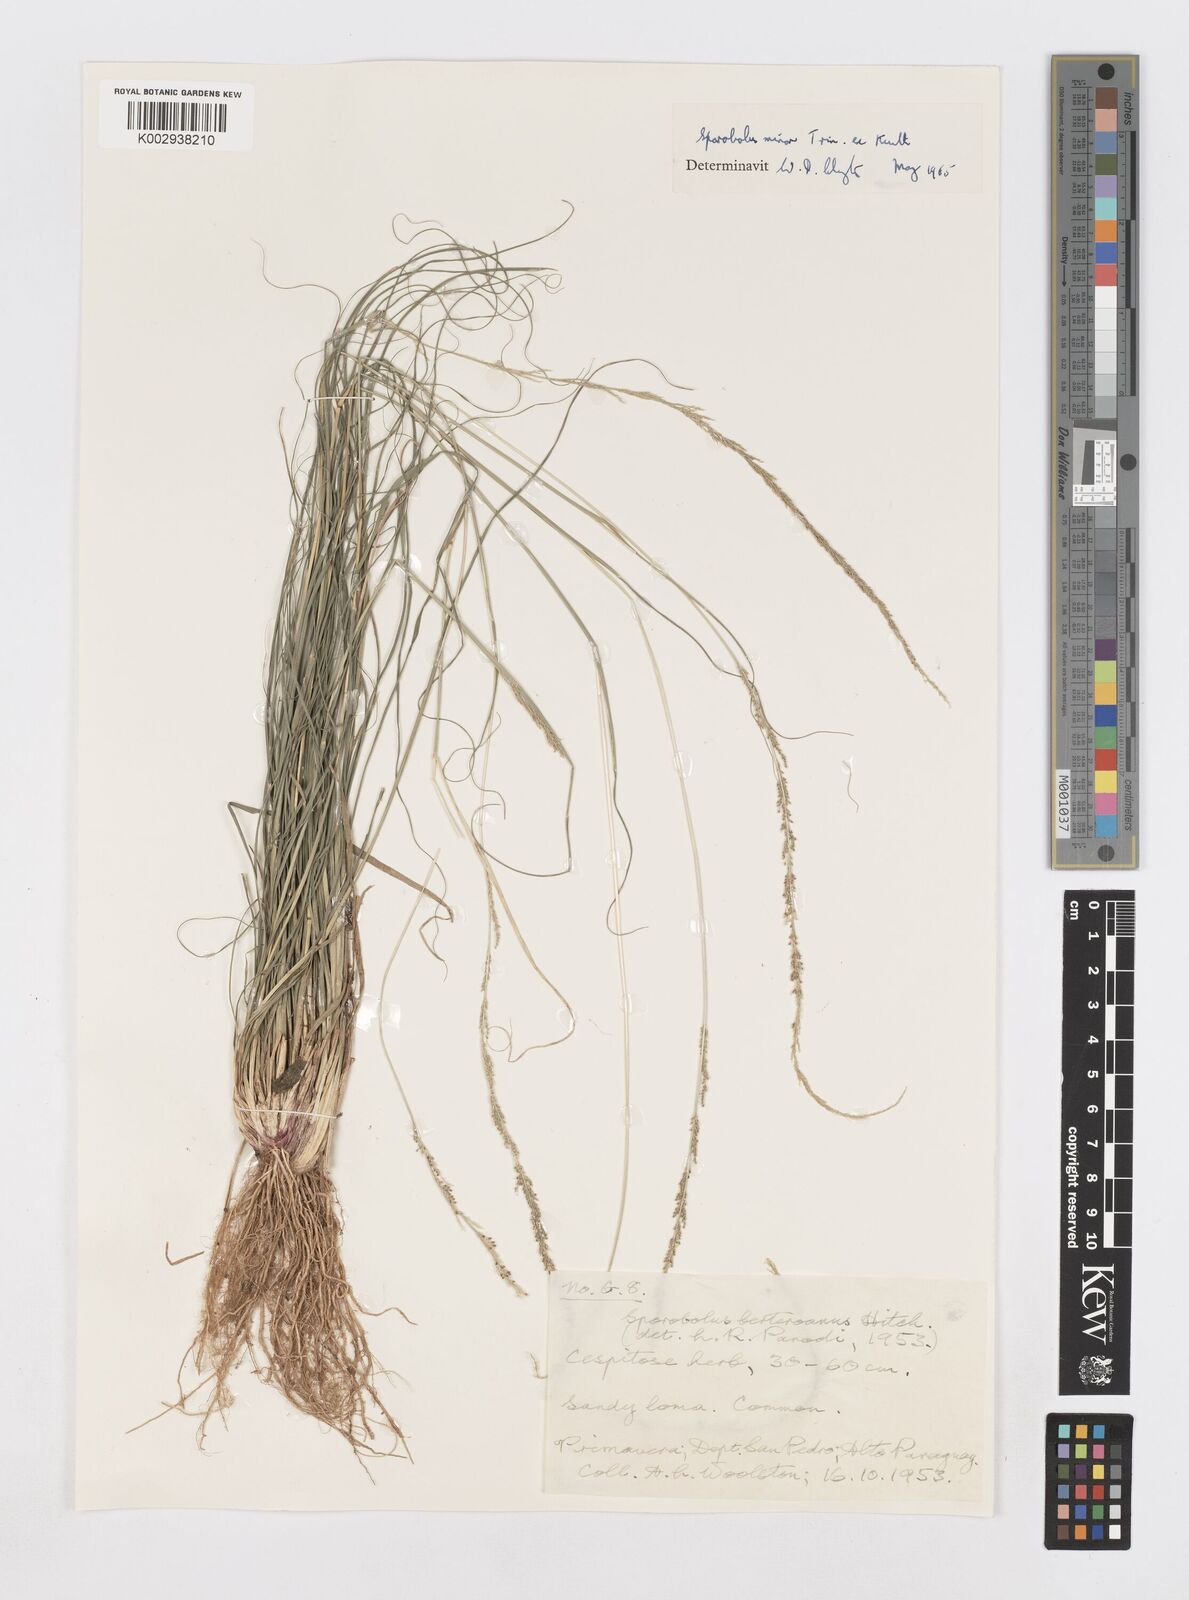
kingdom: Plantae
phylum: Tracheophyta
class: Liliopsida
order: Poales
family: Poaceae
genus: Sporobolus
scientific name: Sporobolus indicus
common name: Smut grass
